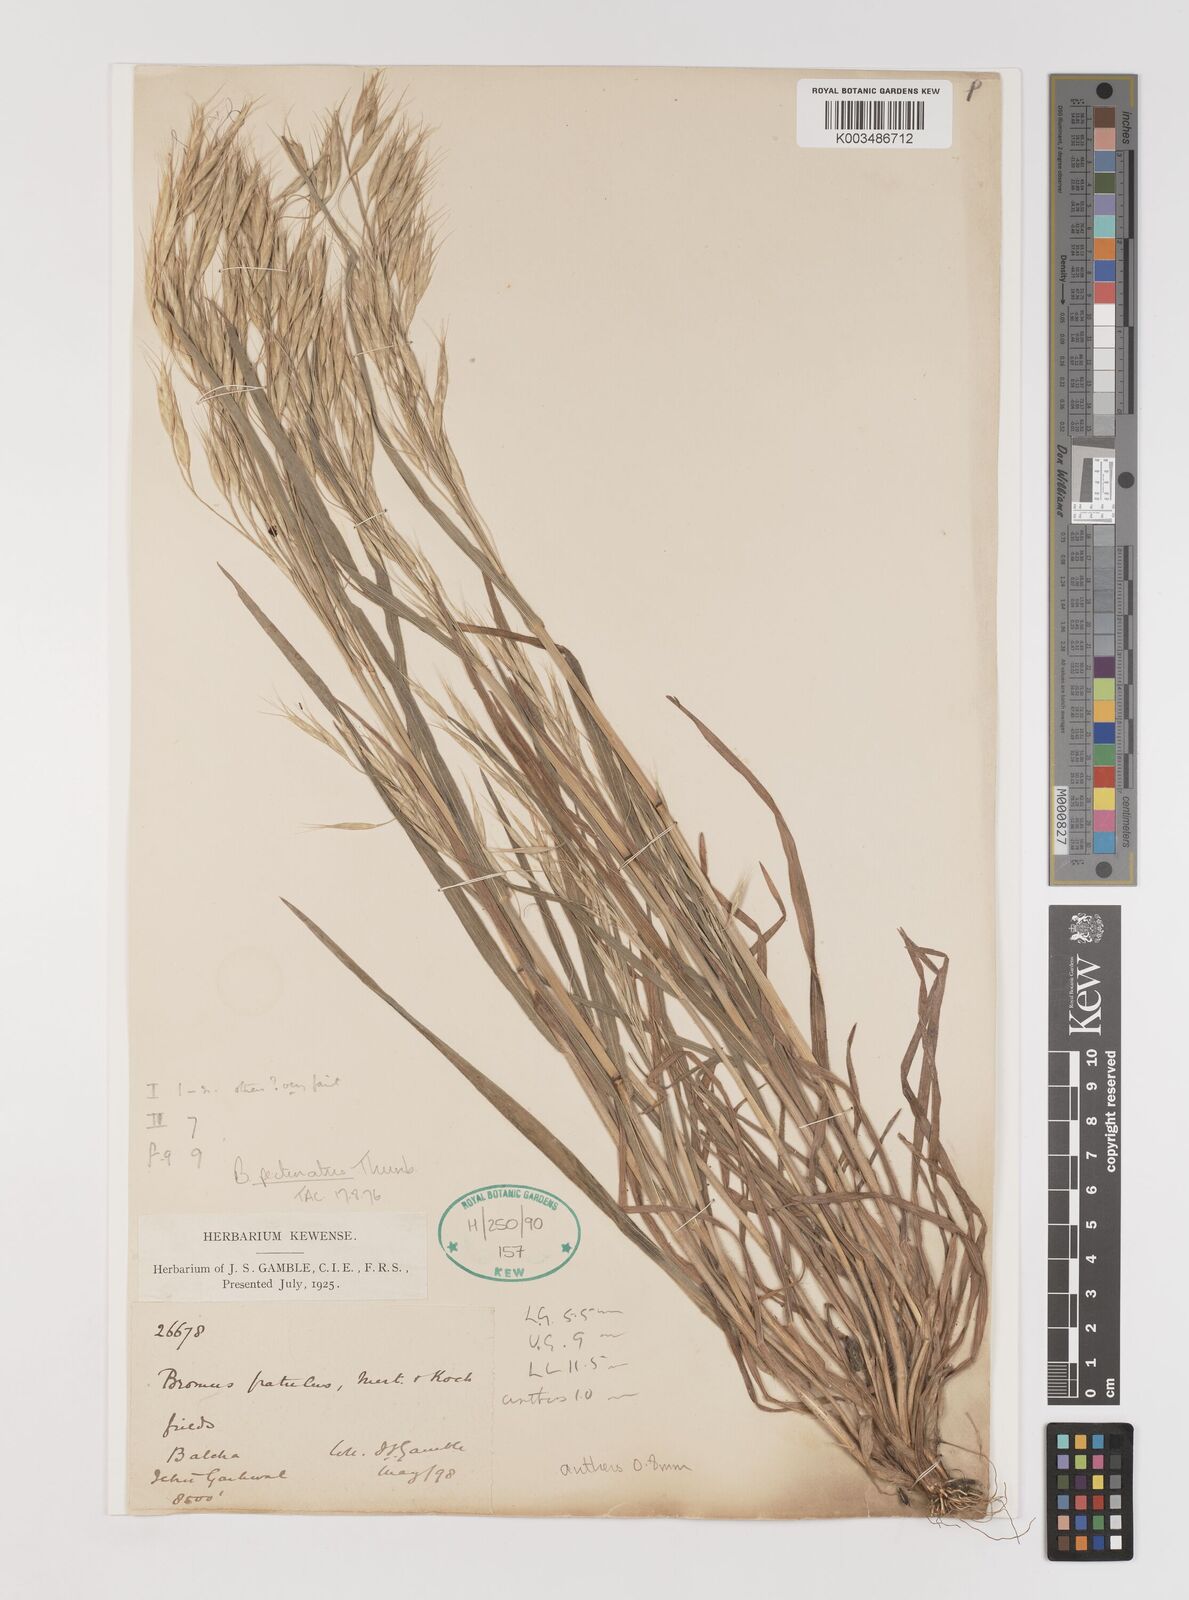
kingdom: Plantae
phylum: Tracheophyta
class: Liliopsida
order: Poales
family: Poaceae
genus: Bromus
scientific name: Bromus pectinatus
